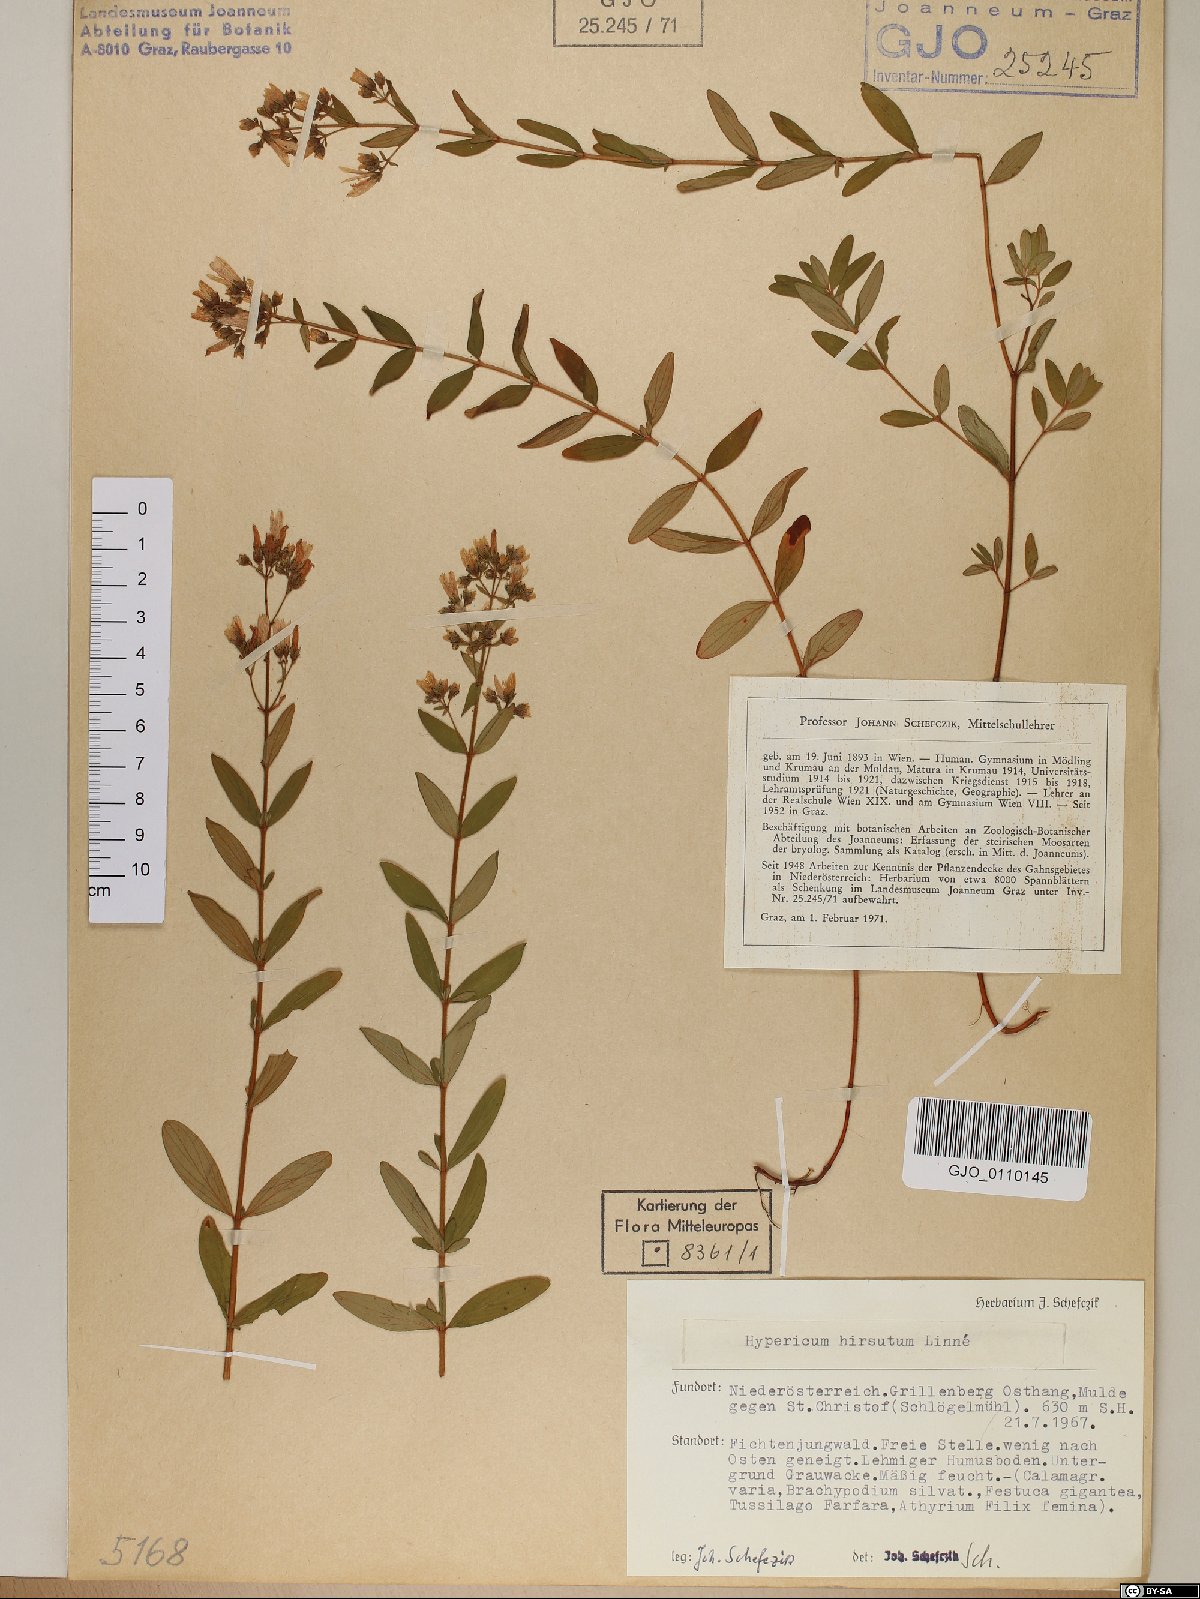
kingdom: Plantae
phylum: Tracheophyta
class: Magnoliopsida
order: Malpighiales
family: Hypericaceae
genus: Hypericum
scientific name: Hypericum hirsutum
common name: Hairy st. john's-wort
